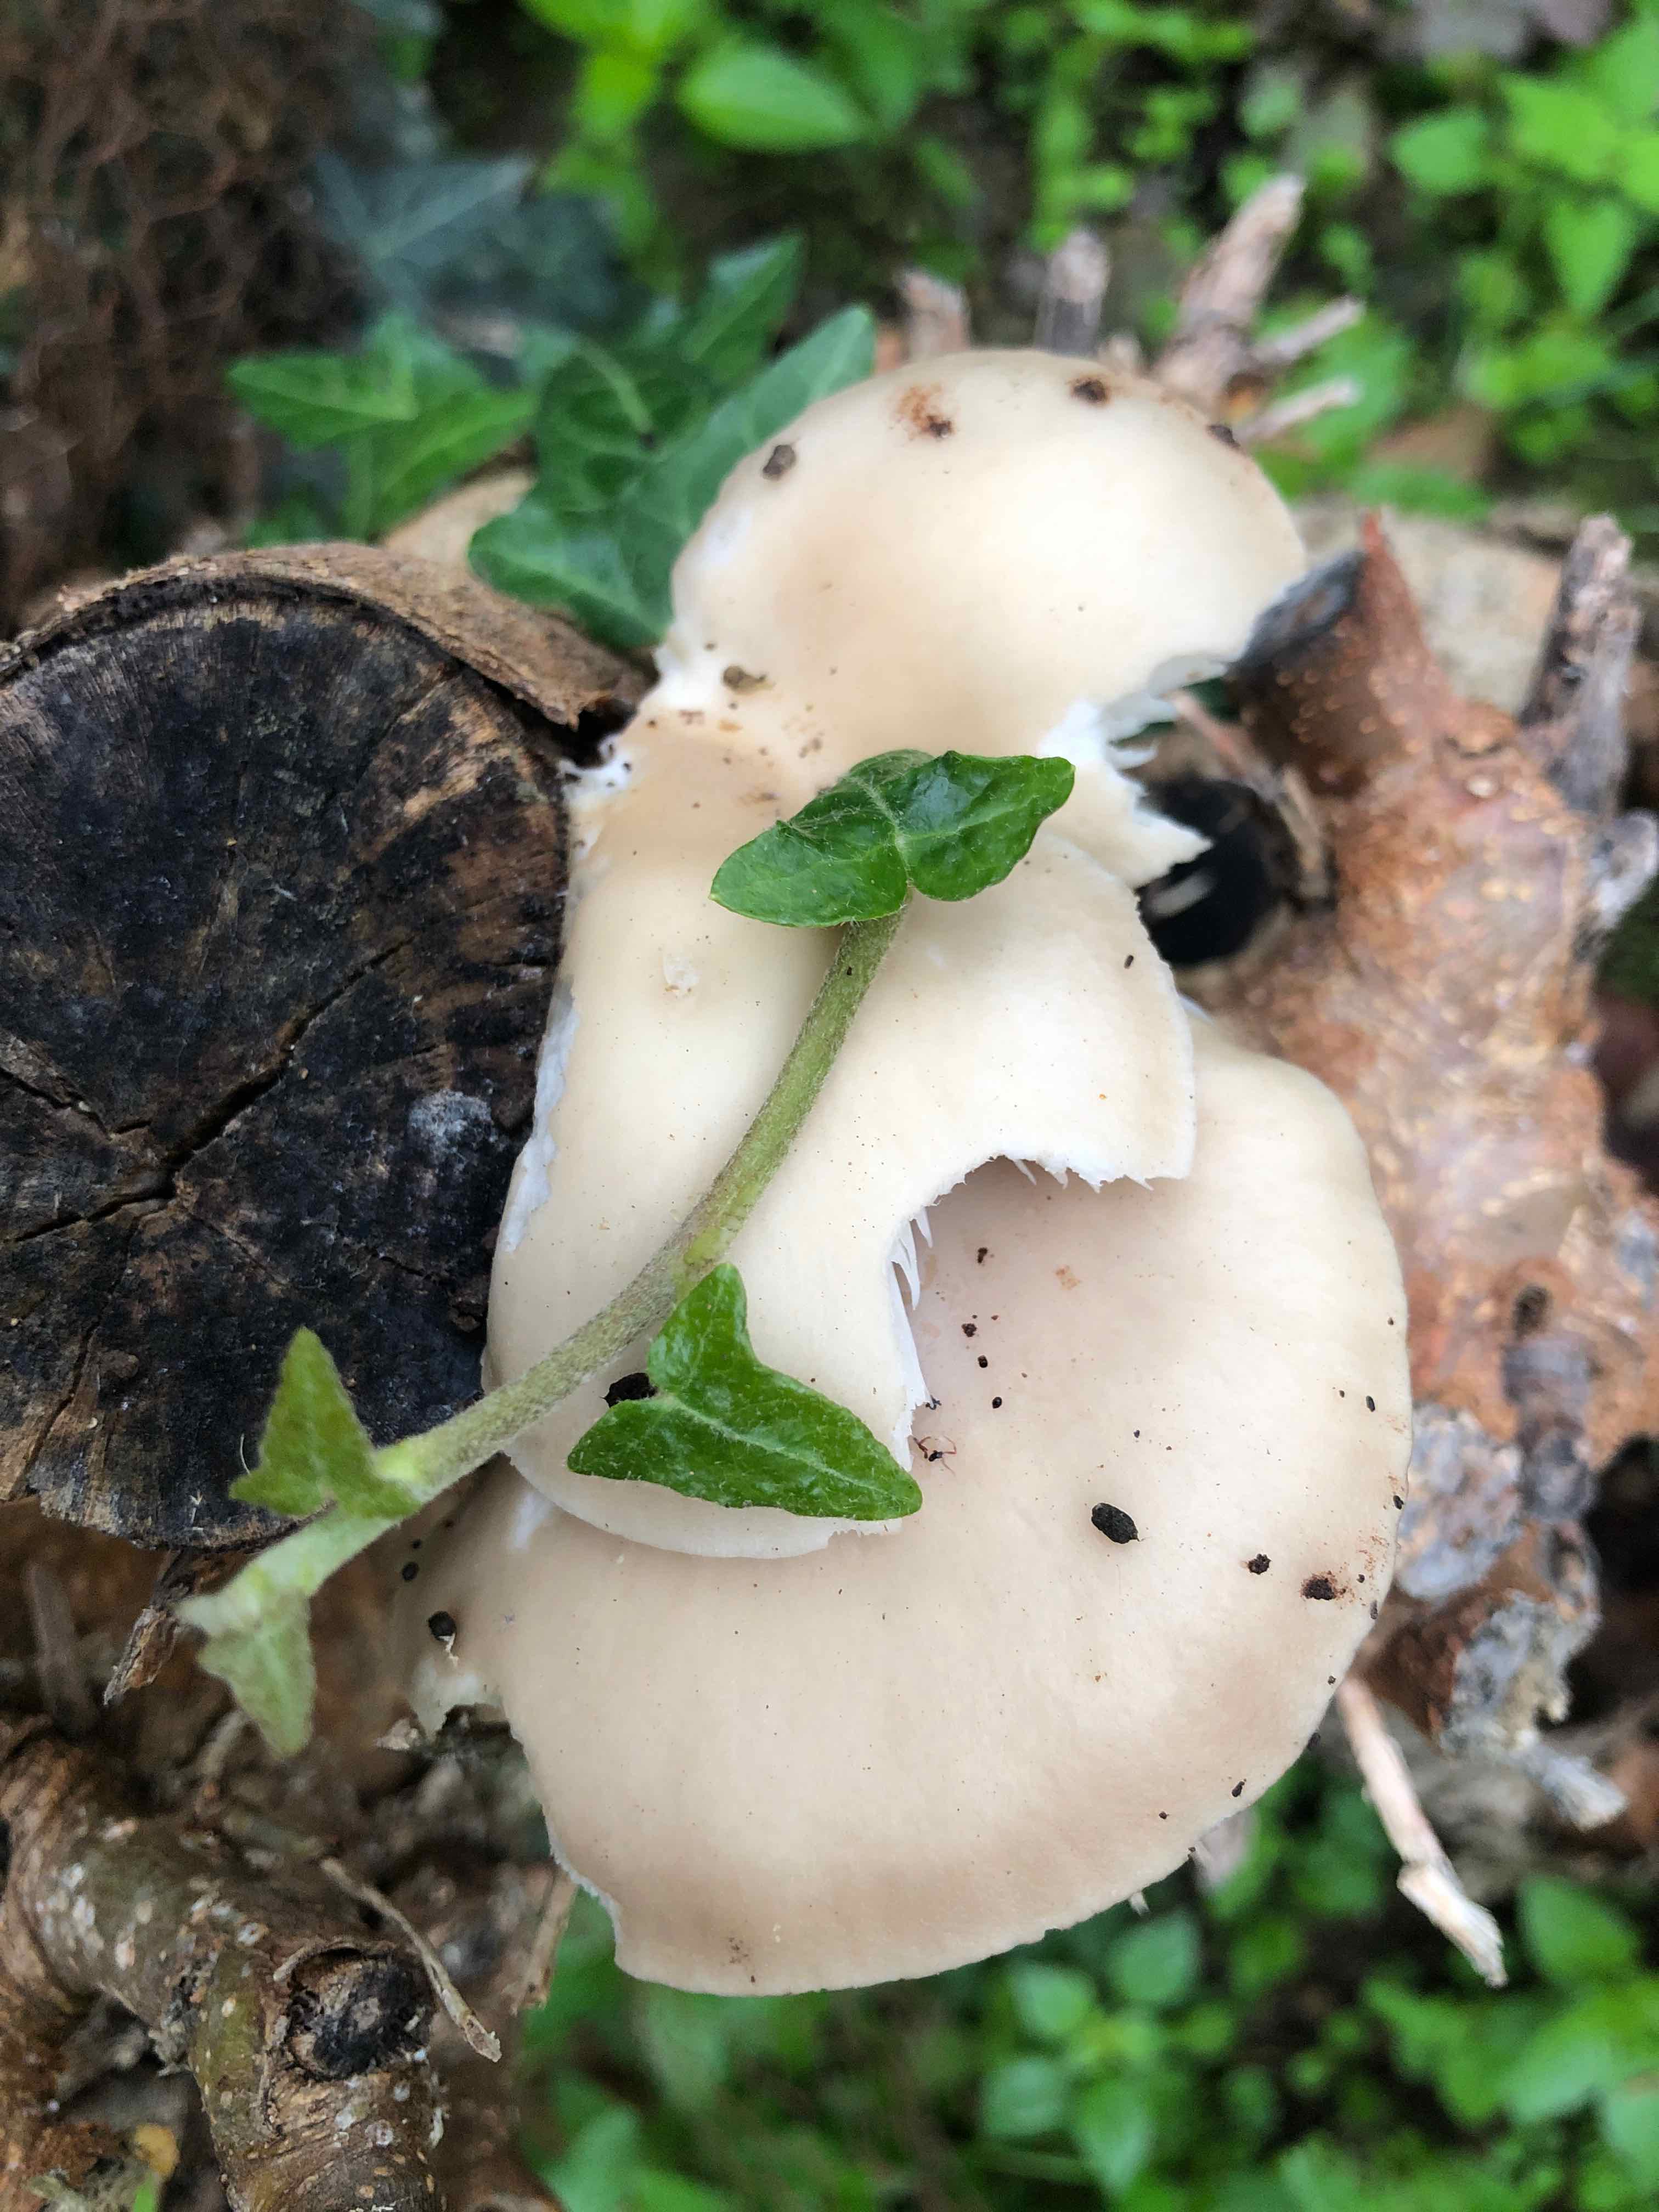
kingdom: Fungi
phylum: Basidiomycota
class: Agaricomycetes
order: Agaricales
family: Pleurotaceae
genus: Pleurotus
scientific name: Pleurotus pulmonarius
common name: sommer-østershat
